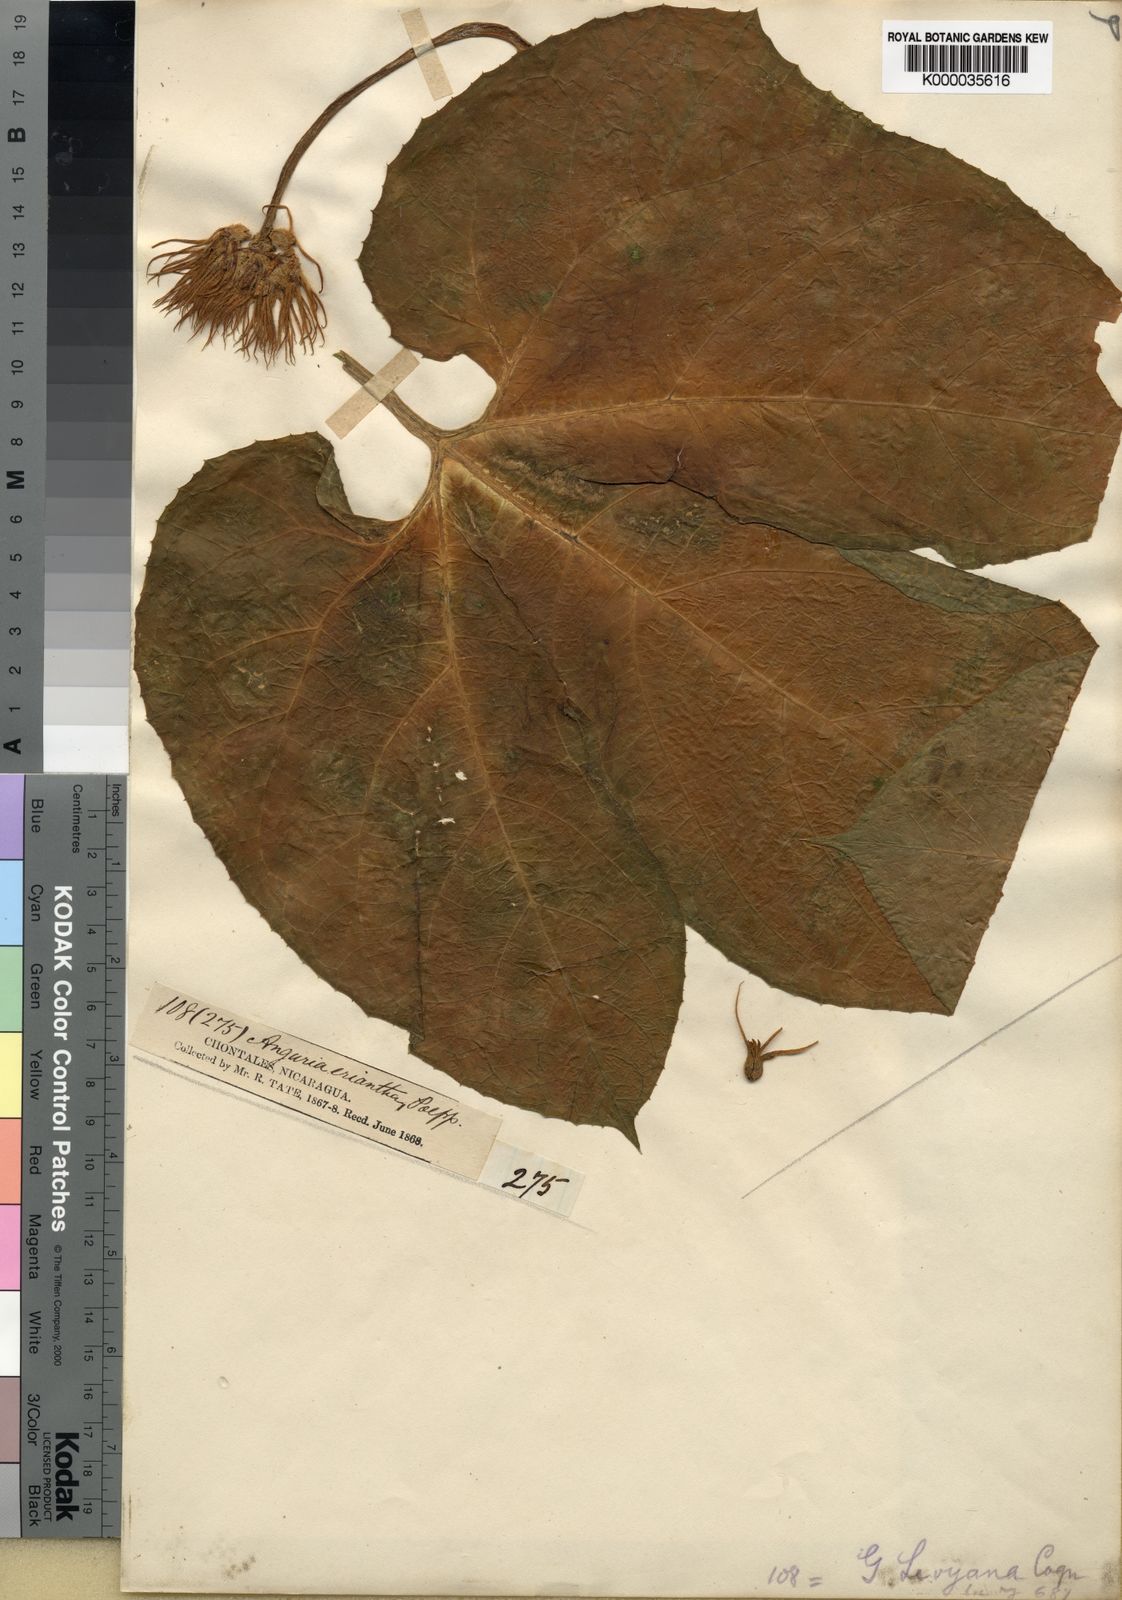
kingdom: Plantae
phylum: Tracheophyta
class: Magnoliopsida
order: Cucurbitales
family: Cucurbitaceae
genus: Gurania
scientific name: Gurania makoyana
